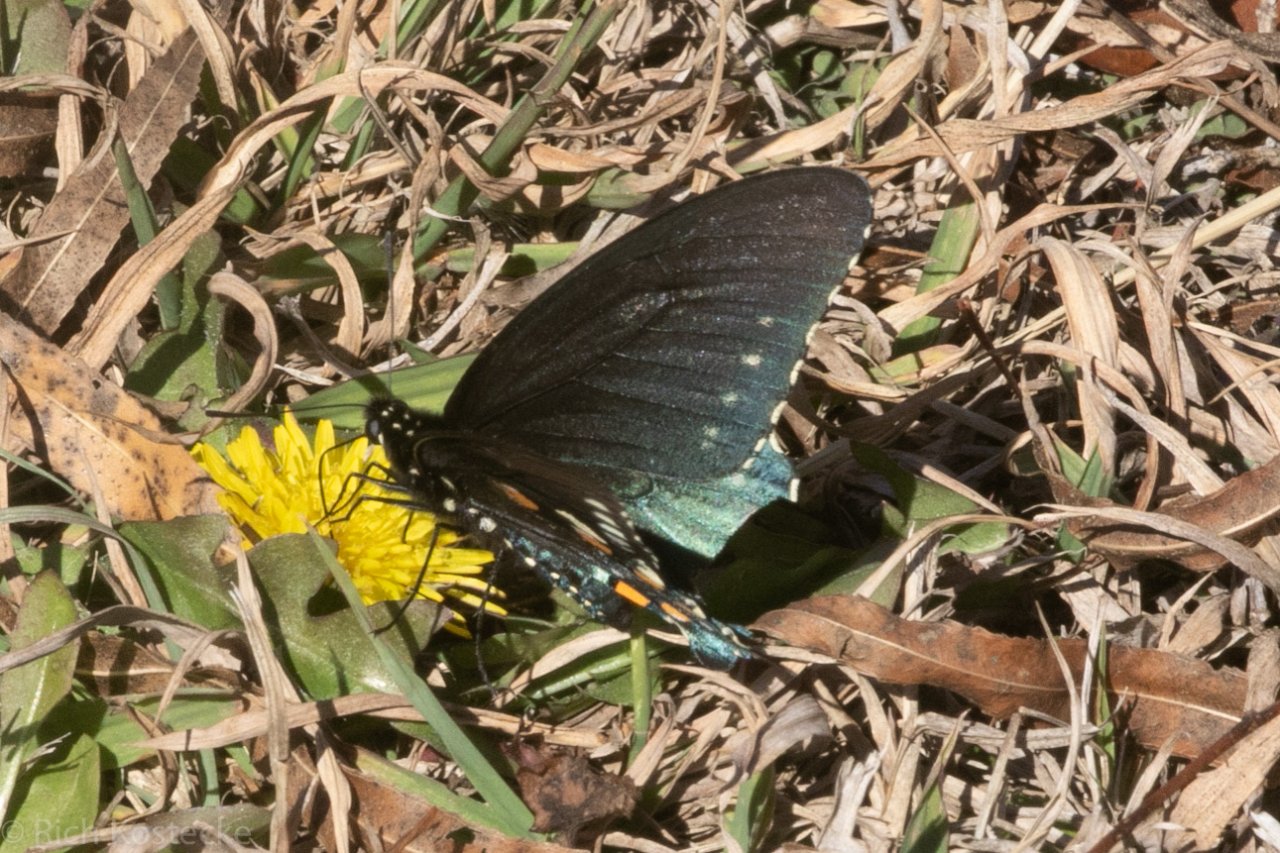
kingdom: Animalia
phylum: Arthropoda
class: Insecta
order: Lepidoptera
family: Papilionidae
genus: Battus
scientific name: Battus philenor
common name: Pipevine Swallowtail
